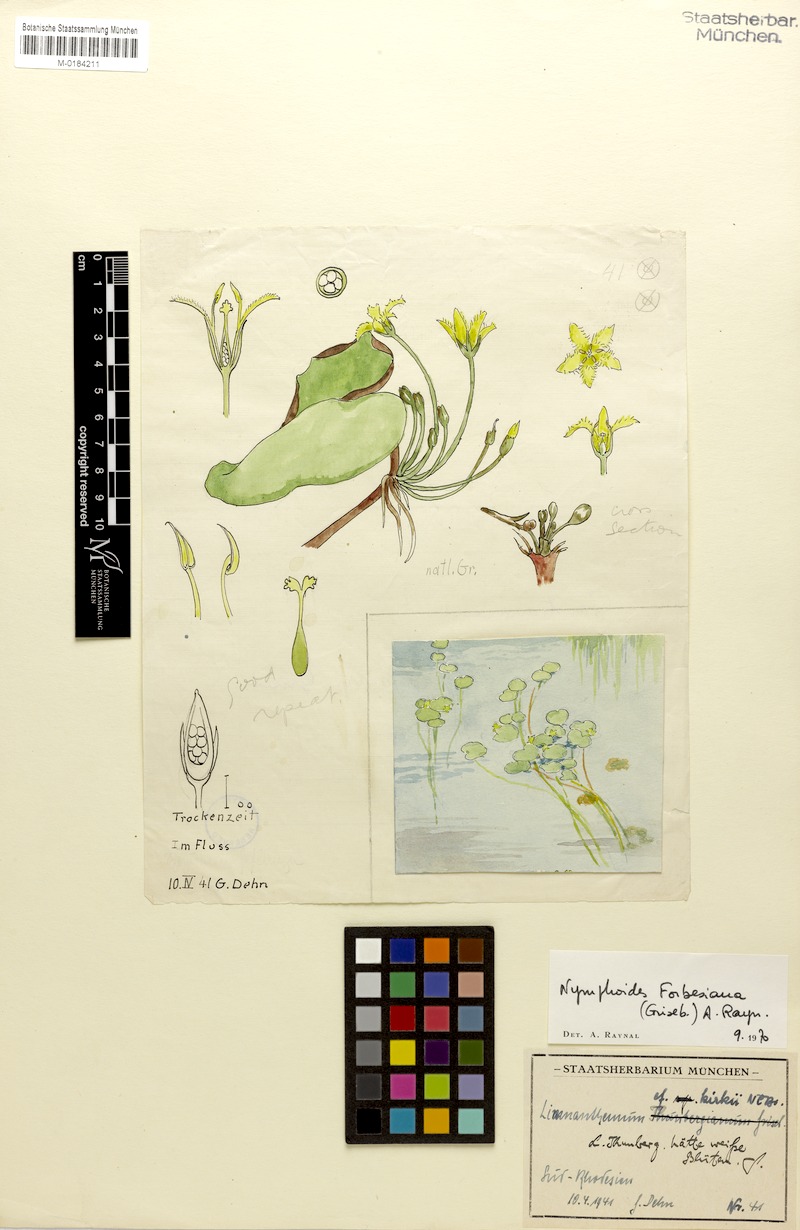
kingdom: Plantae
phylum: Tracheophyta
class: Magnoliopsida
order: Asterales
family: Menyanthaceae
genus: Nymphoides
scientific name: Nymphoides forbesiana
